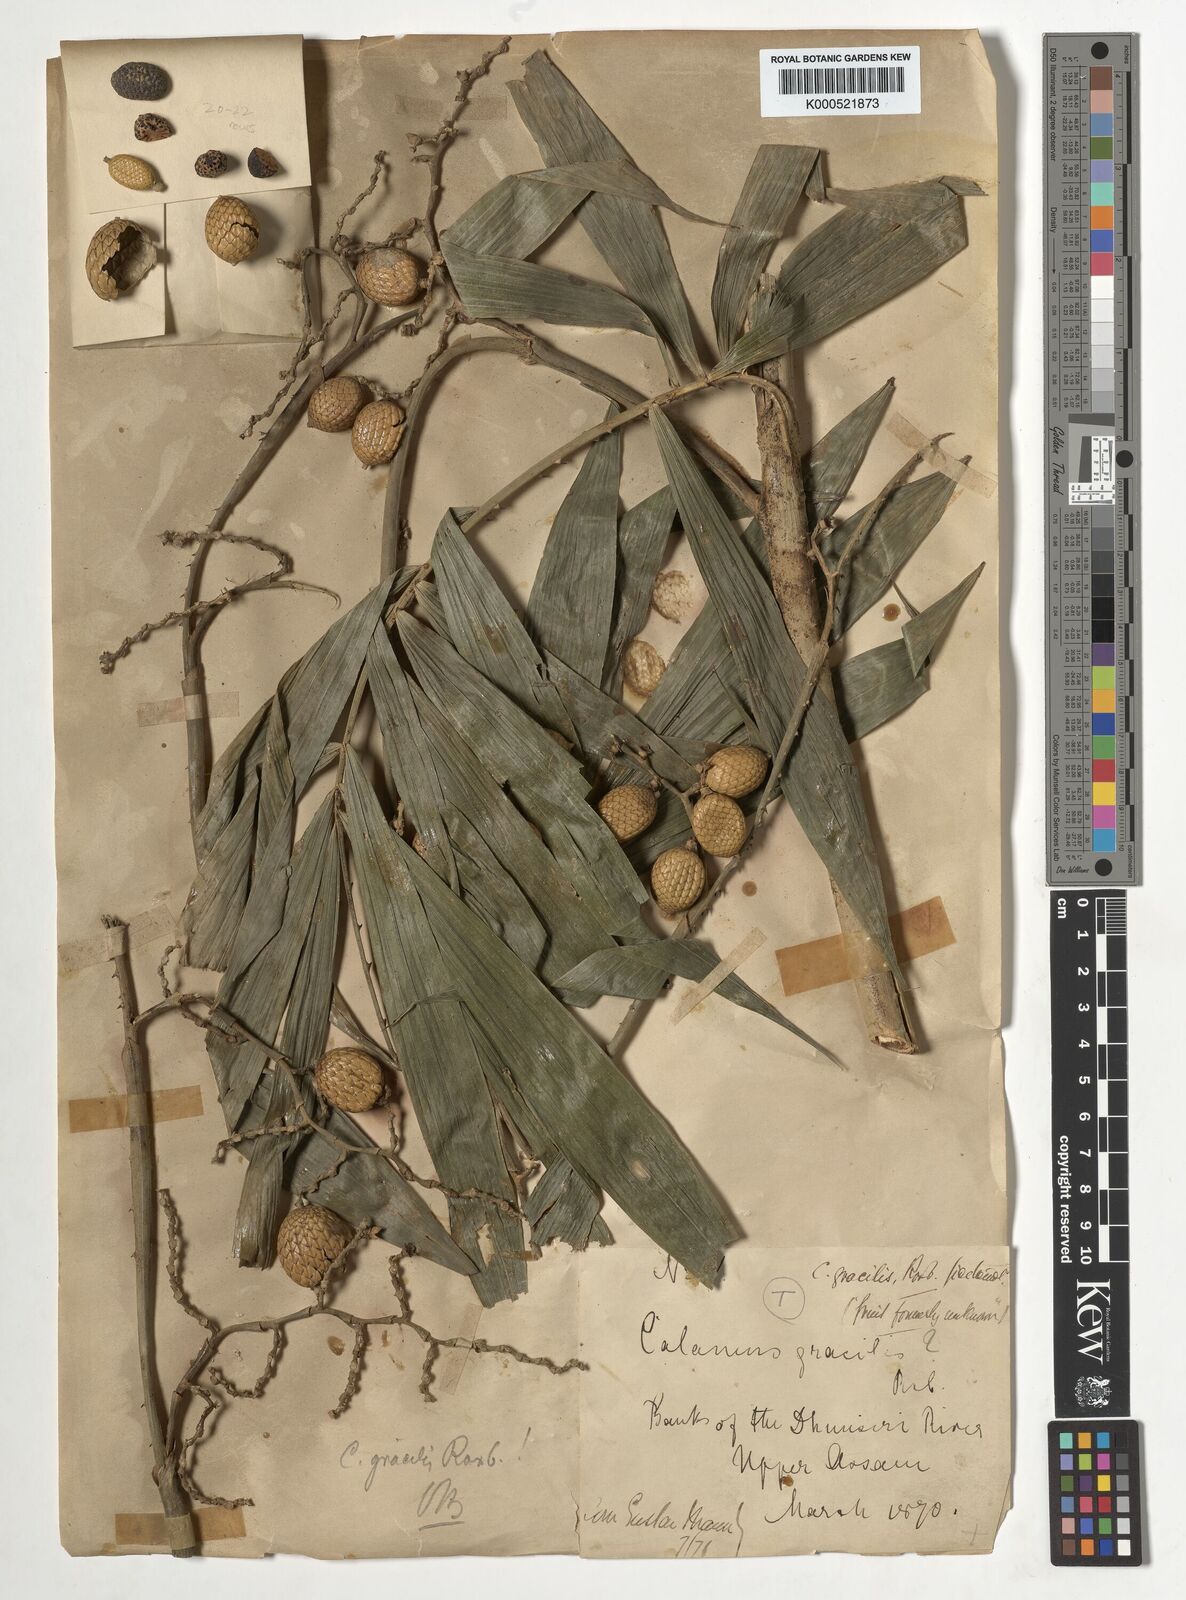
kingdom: Plantae
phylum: Tracheophyta
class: Liliopsida
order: Arecales
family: Arecaceae
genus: Calamus
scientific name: Calamus gracilis
